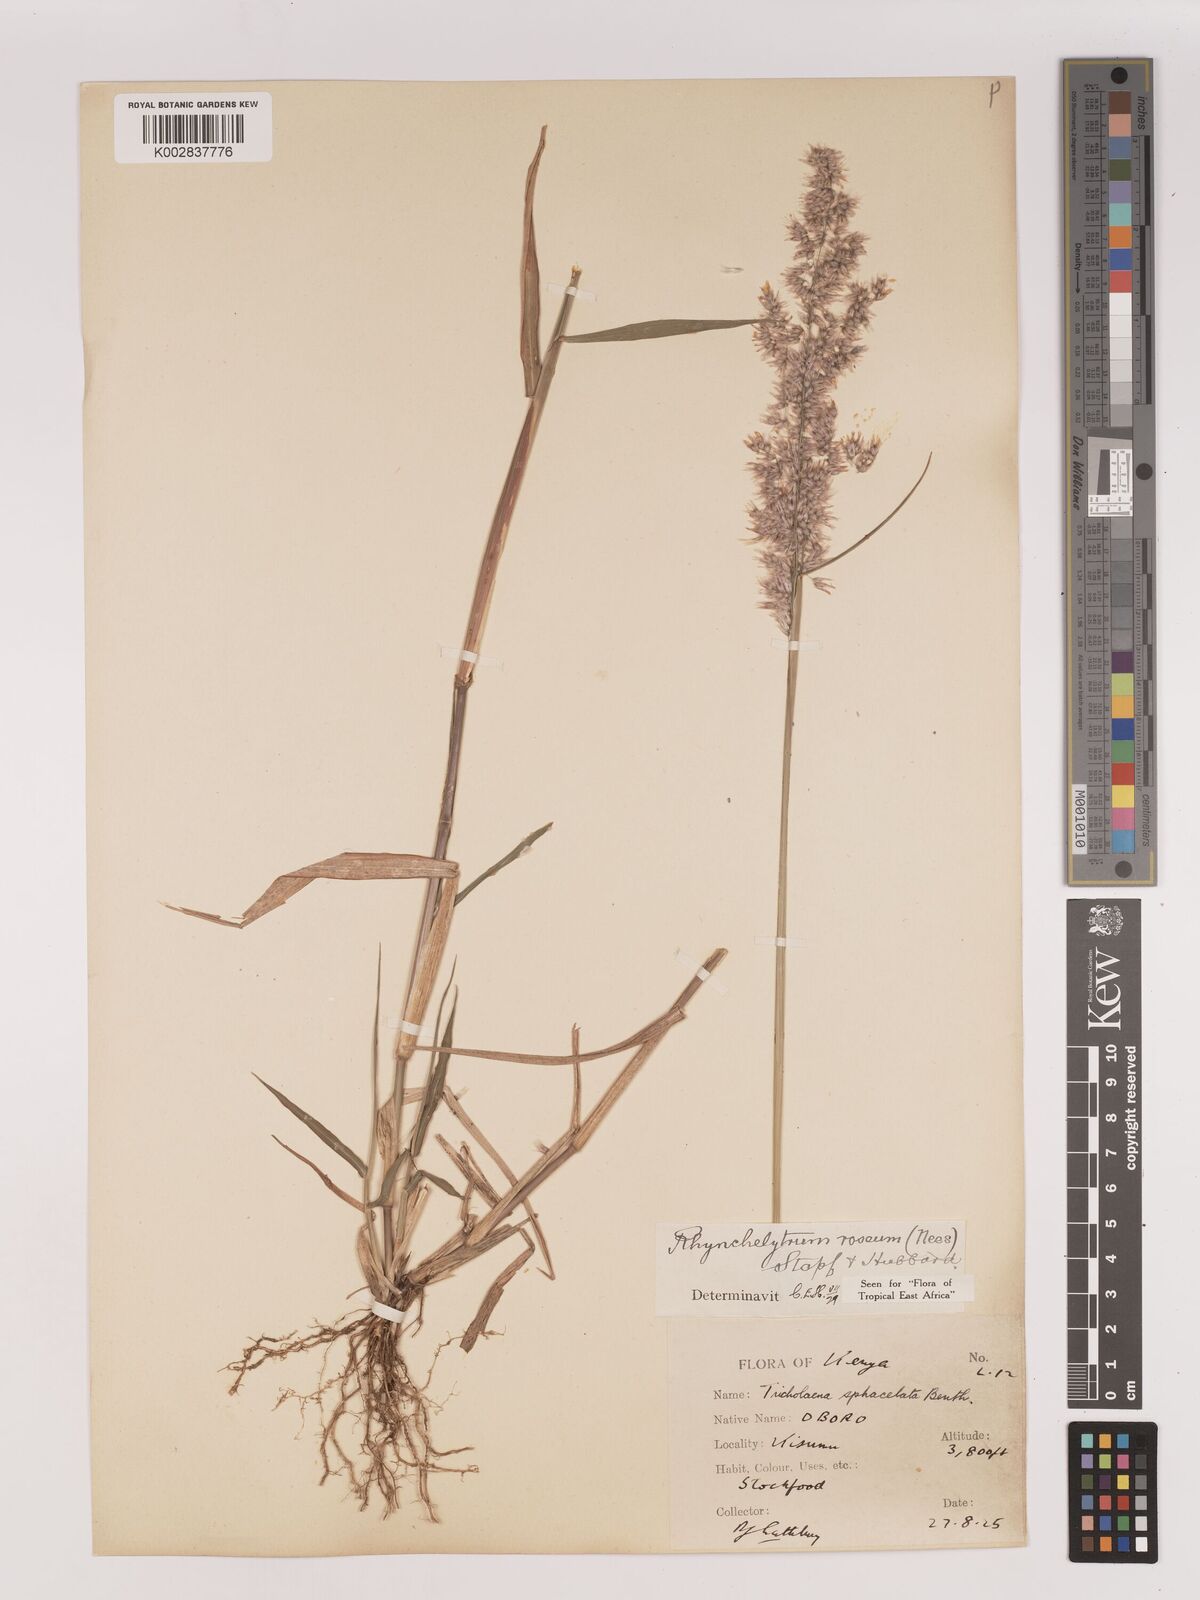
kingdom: Plantae
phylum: Tracheophyta
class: Liliopsida
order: Poales
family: Poaceae
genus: Melinis
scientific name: Melinis repens
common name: Rose natal grass
